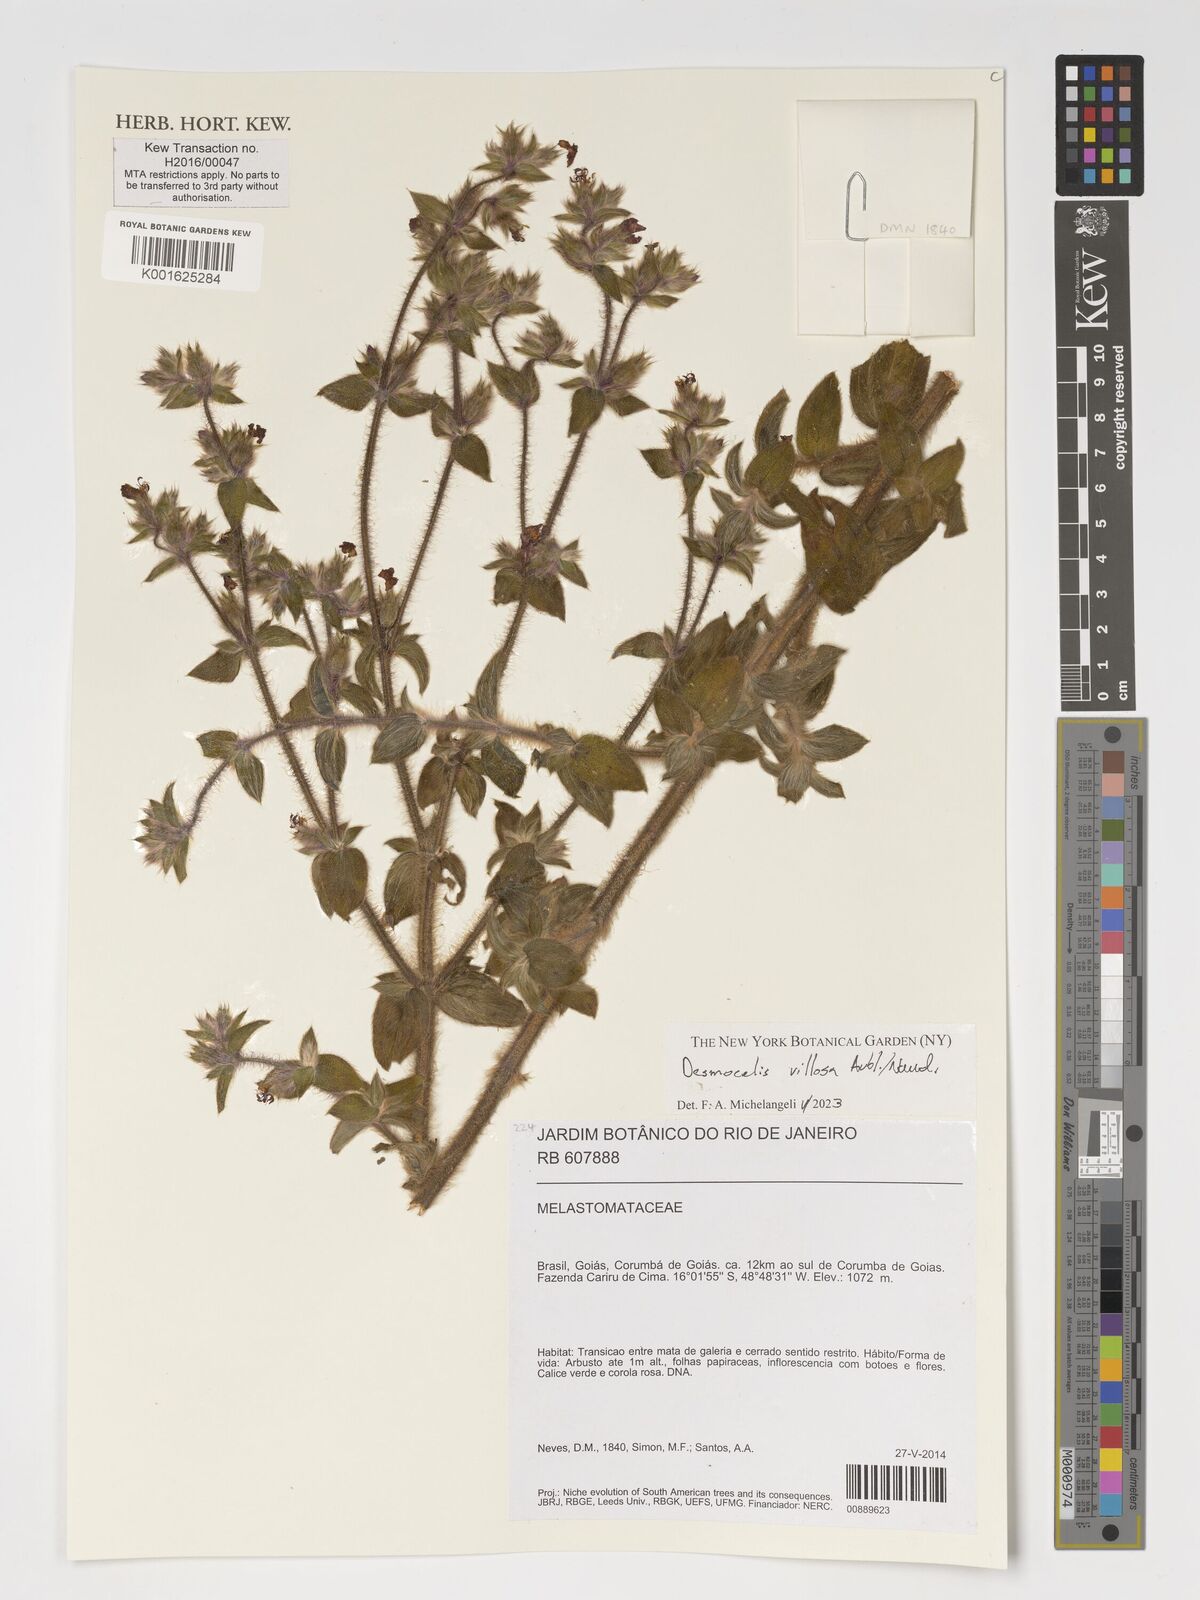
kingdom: Plantae
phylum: Tracheophyta
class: Magnoliopsida
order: Myrtales
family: Melastomataceae
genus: Desmoscelis
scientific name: Desmoscelis villosa
